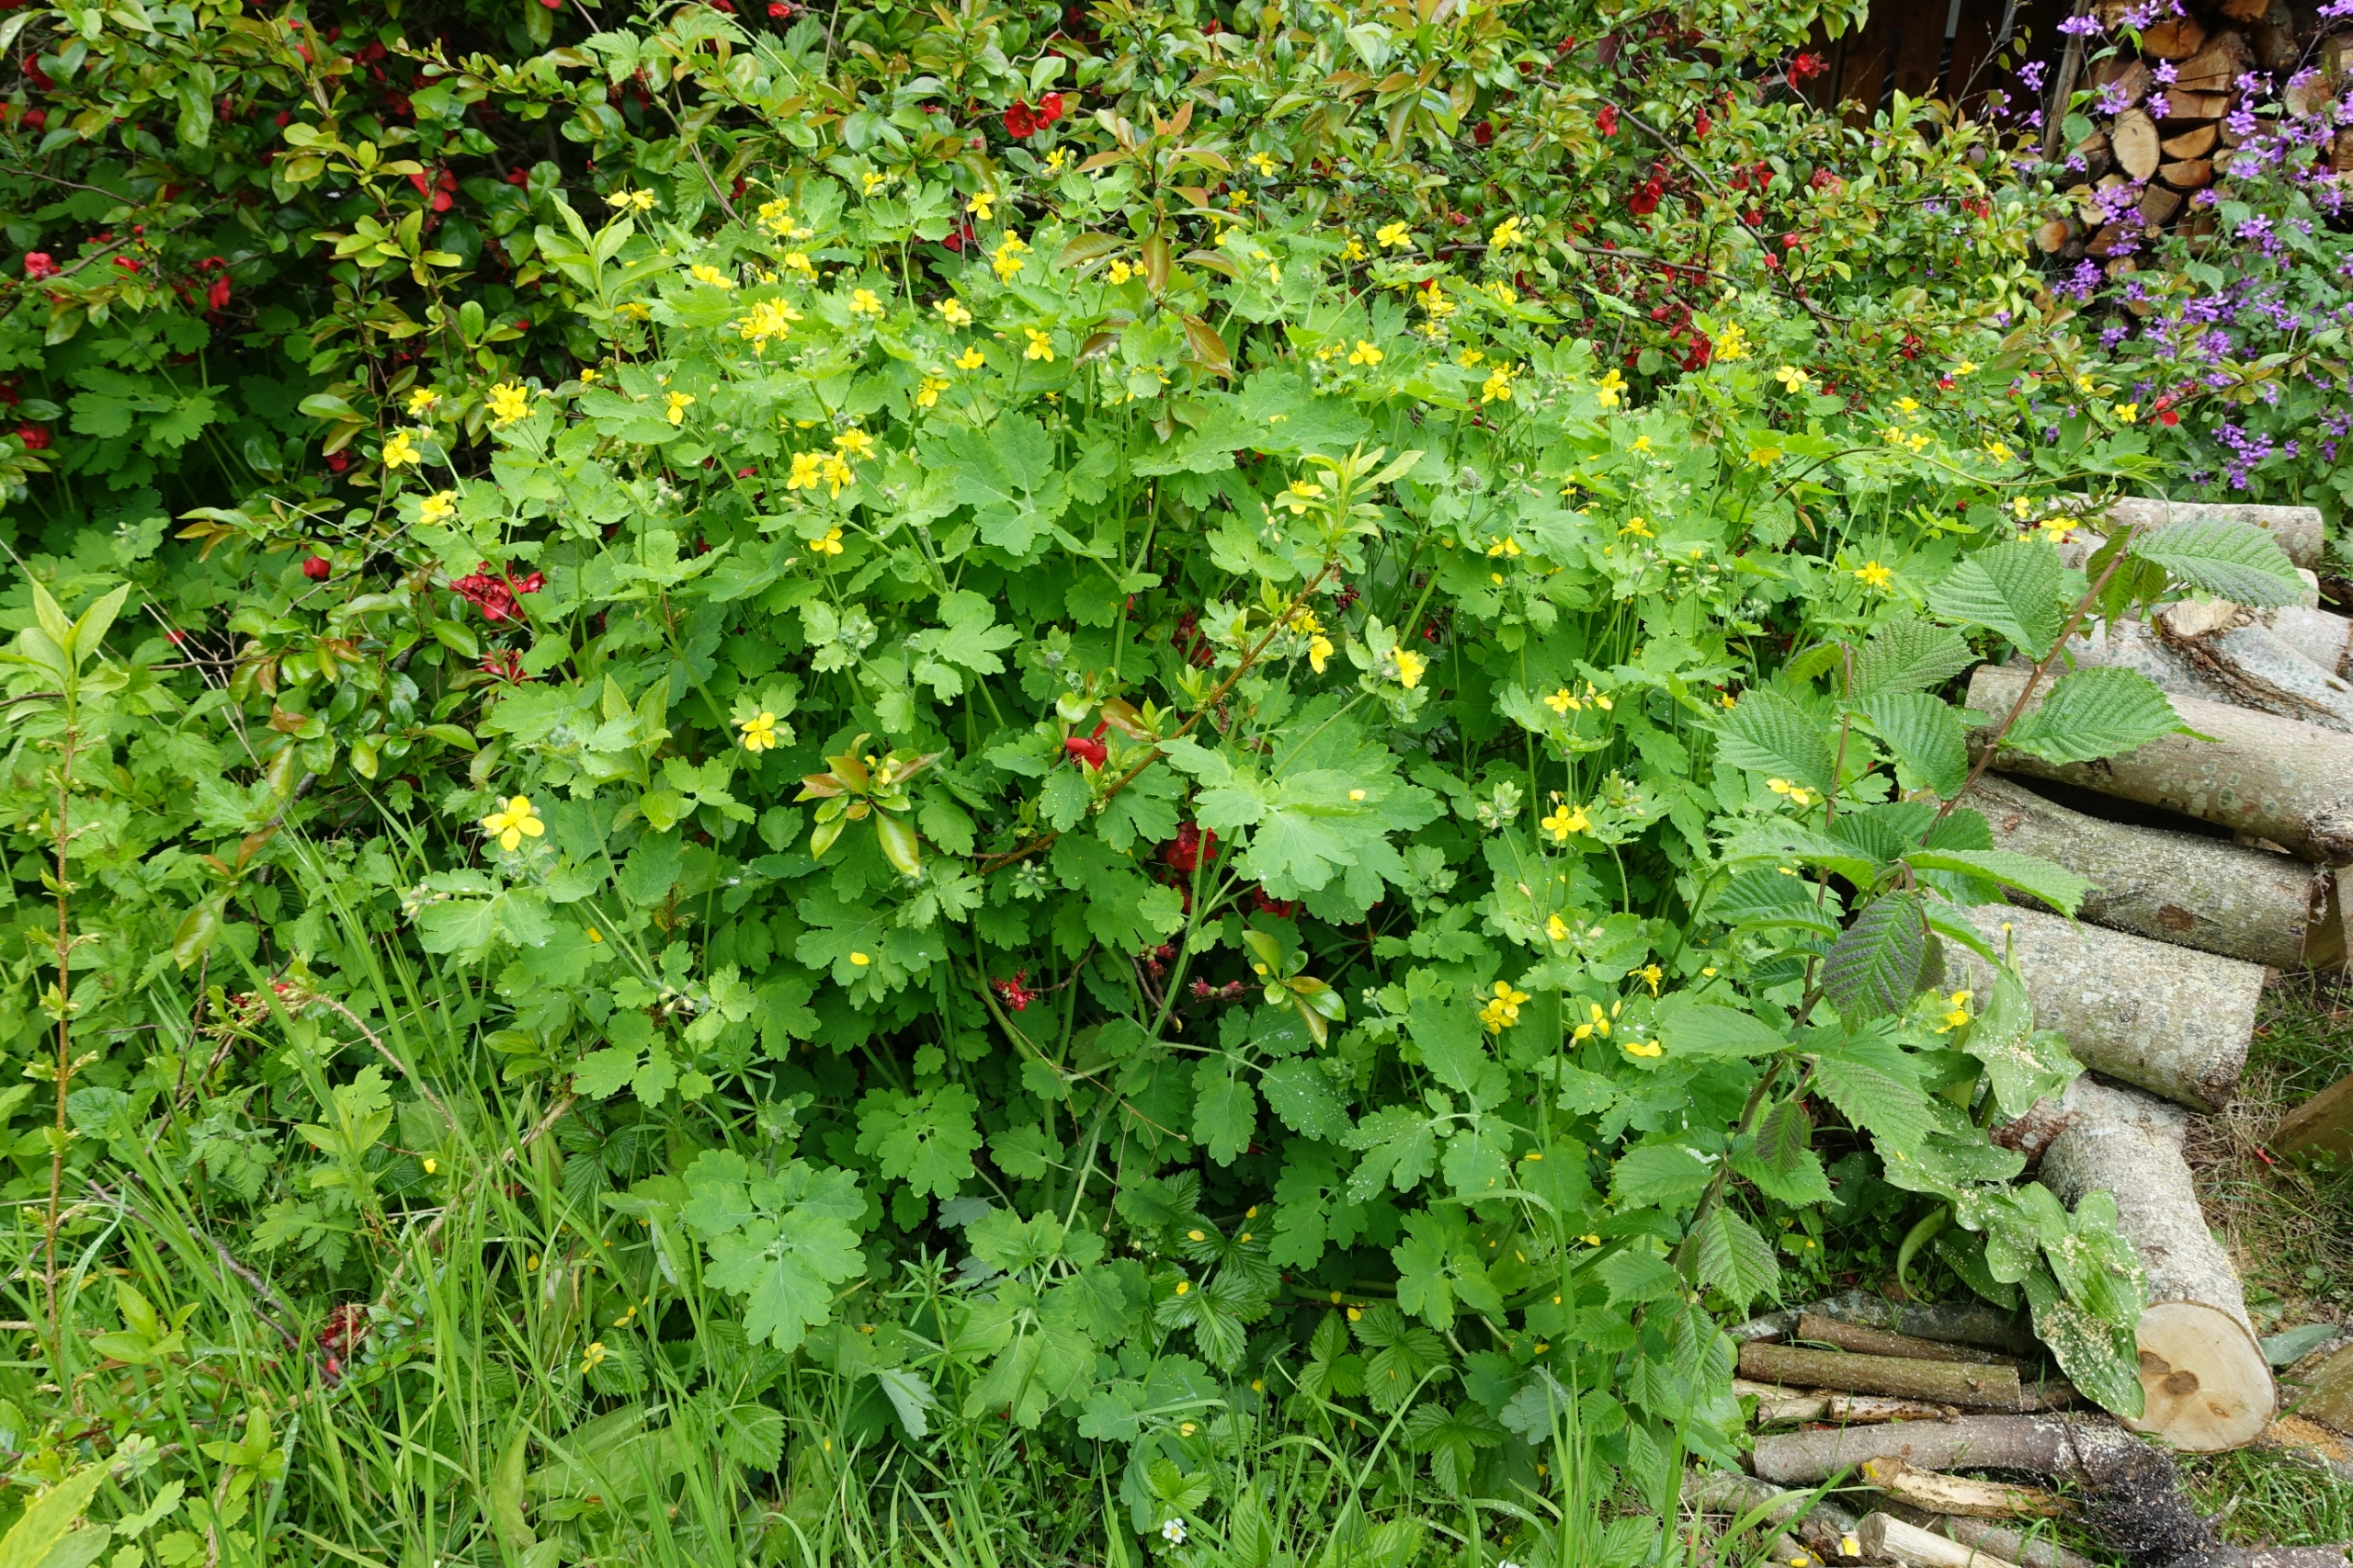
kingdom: Plantae
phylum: Tracheophyta
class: Magnoliopsida
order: Ranunculales
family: Papaveraceae
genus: Chelidonium
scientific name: Chelidonium majus
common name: Svaleurt
